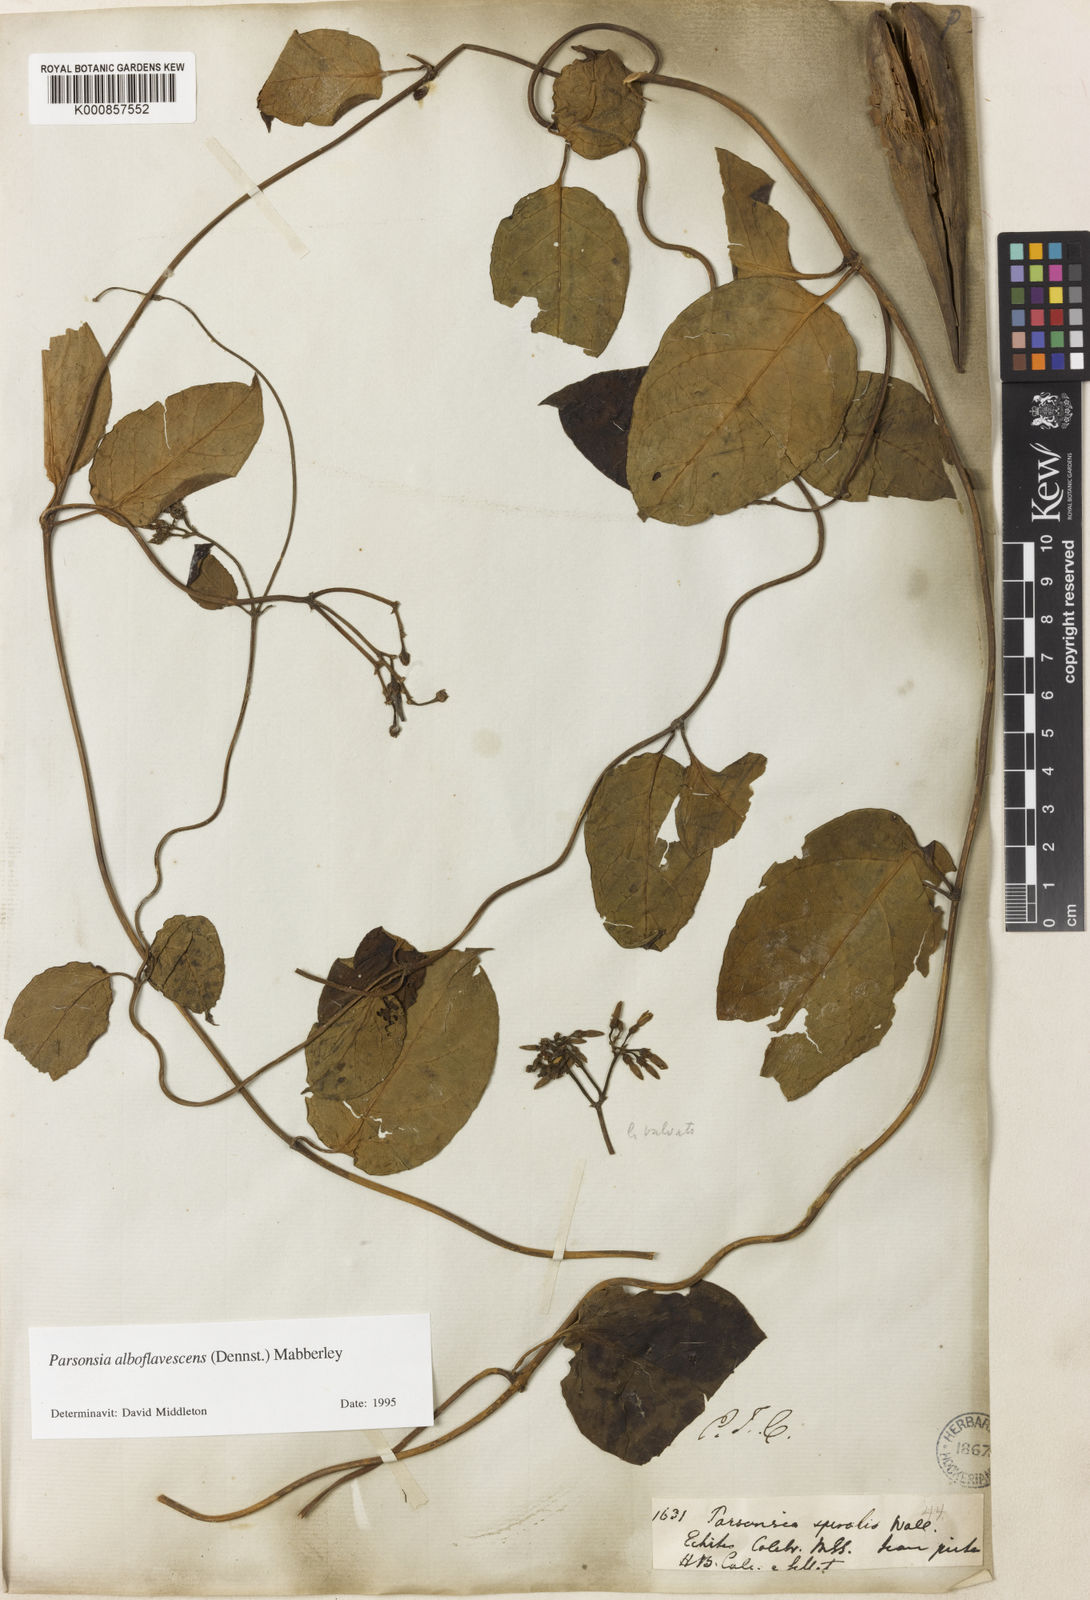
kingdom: Plantae
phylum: Tracheophyta
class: Magnoliopsida
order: Gentianales
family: Apocynaceae
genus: Parsonsia
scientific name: Parsonsia alboflavescens
